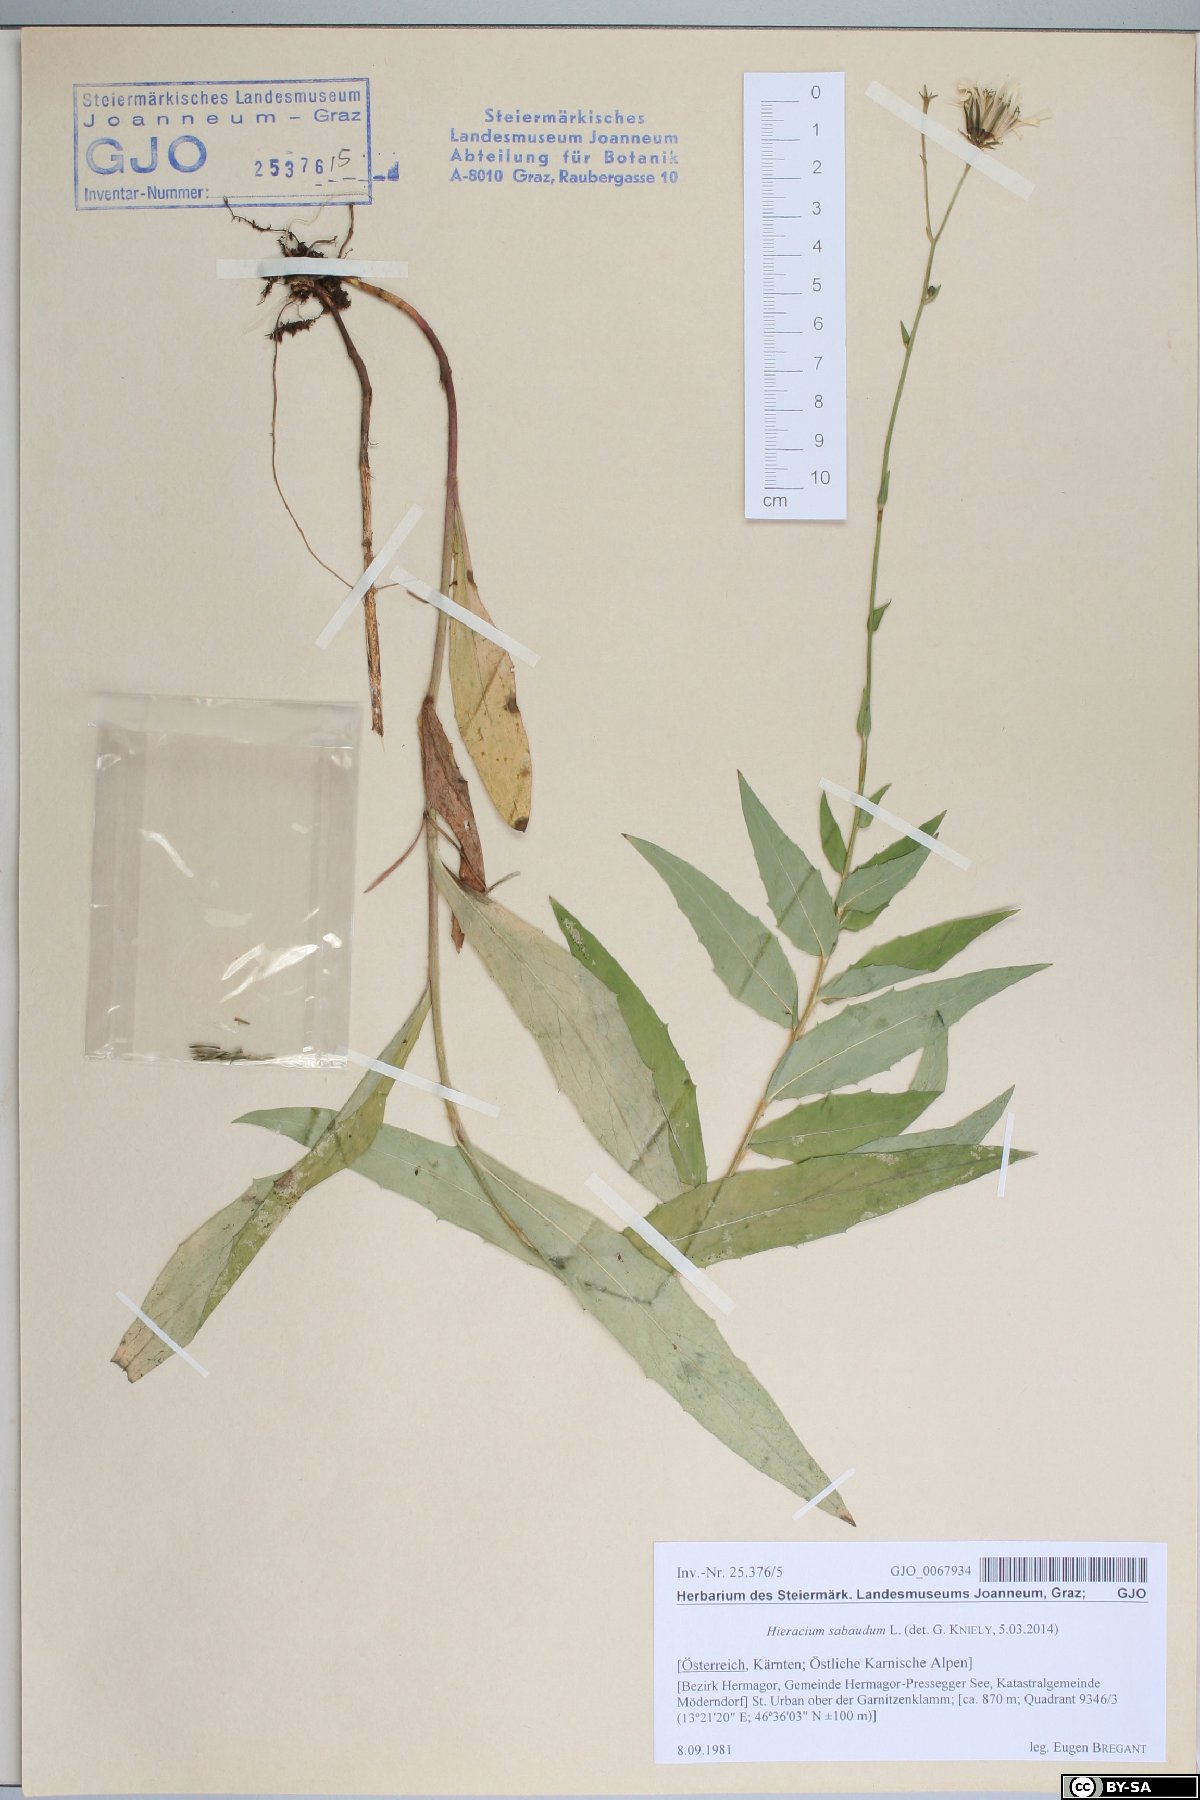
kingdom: Plantae
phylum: Tracheophyta
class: Magnoliopsida
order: Asterales
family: Asteraceae
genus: Hieracium
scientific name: Hieracium sabaudum
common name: New england hawkweed
